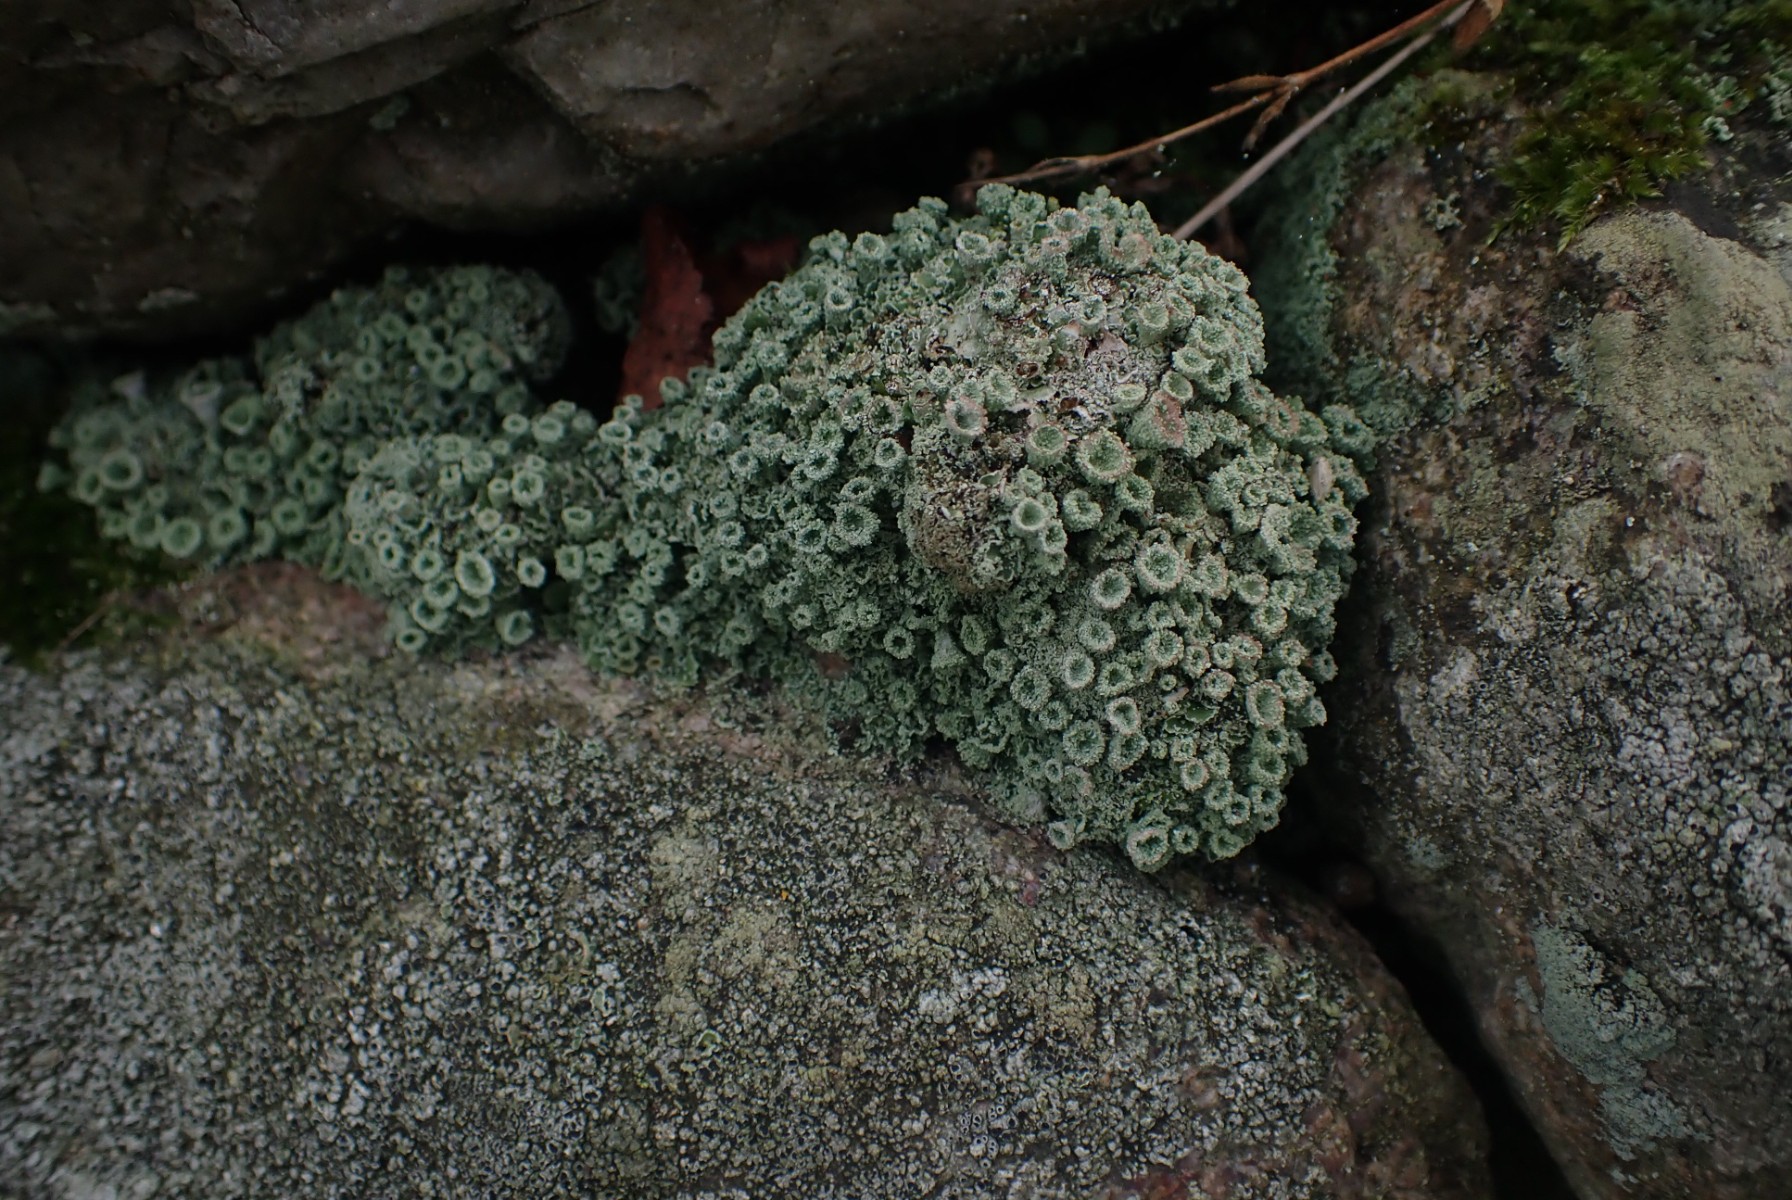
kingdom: Fungi
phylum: Ascomycota
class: Lecanoromycetes
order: Lecanorales
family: Cladoniaceae
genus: Cladonia
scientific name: Cladonia pyxidata
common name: tragt-bægerlav
